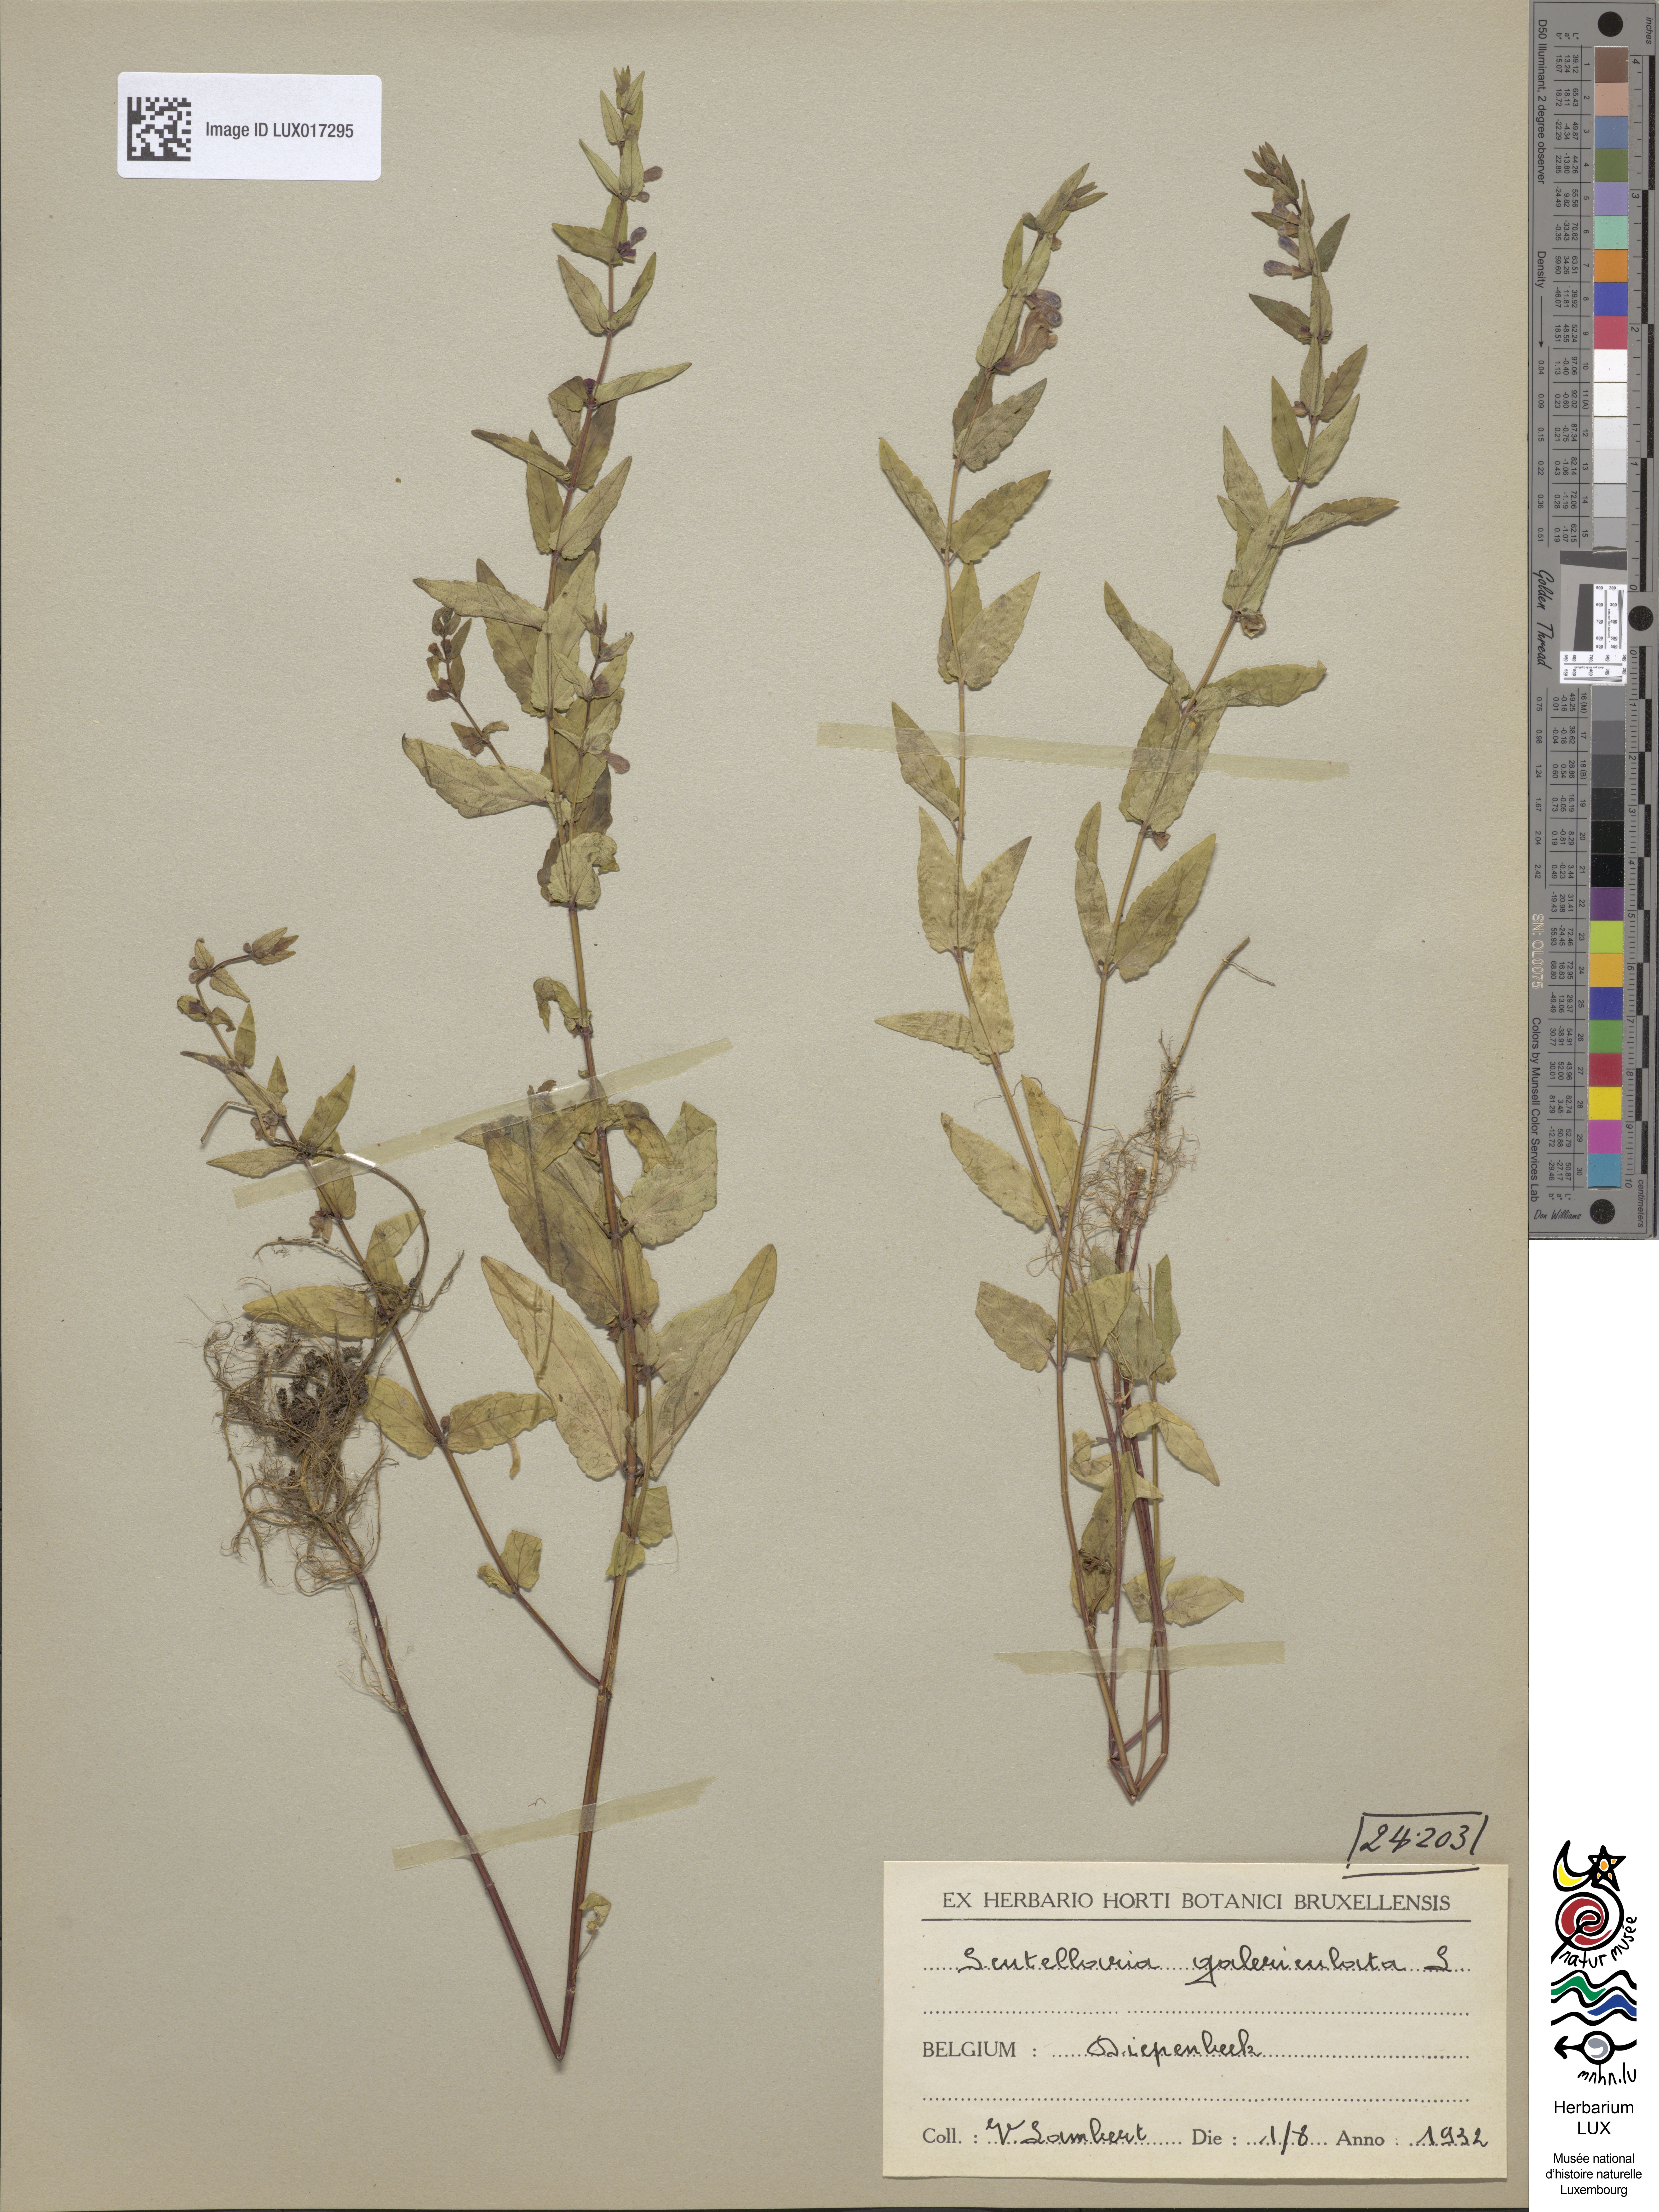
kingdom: Plantae
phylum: Tracheophyta
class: Magnoliopsida
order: Lamiales
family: Lamiaceae
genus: Scutellaria
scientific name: Scutellaria galericulata
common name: Skullcap
